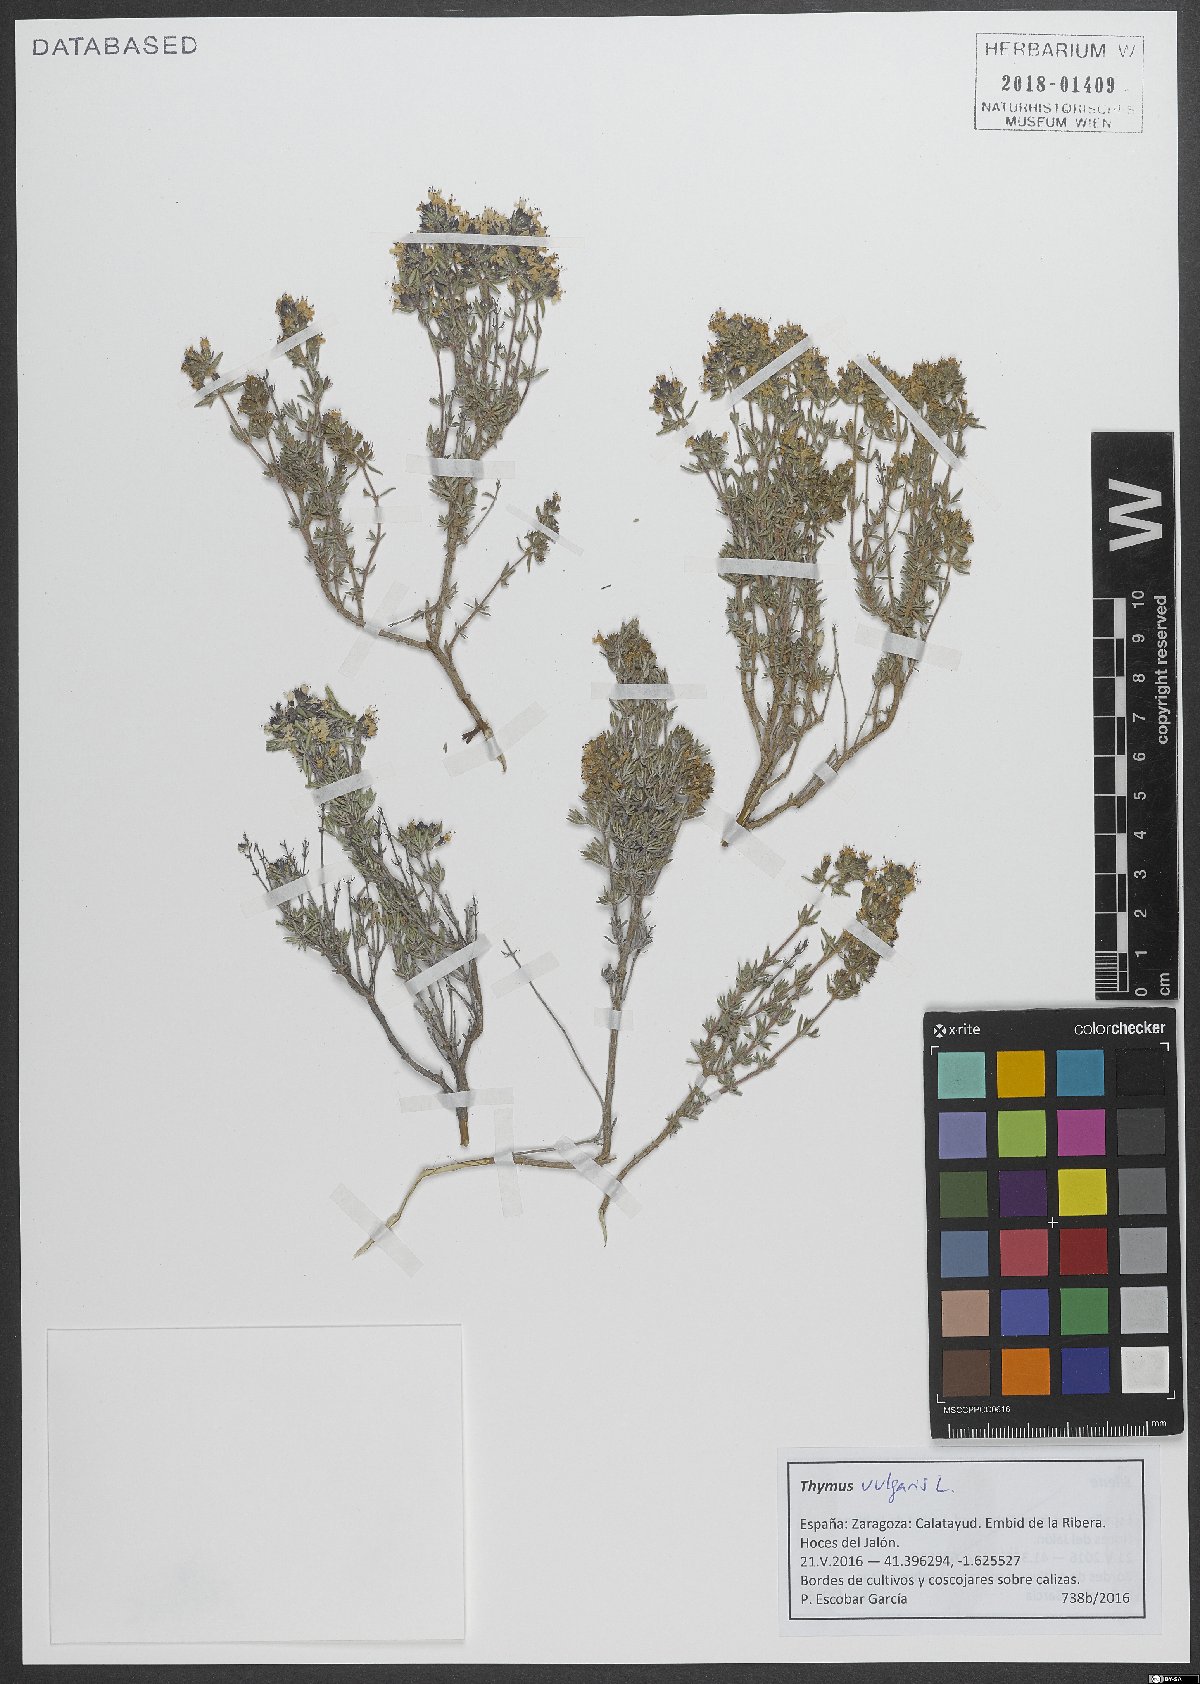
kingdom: Plantae
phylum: Tracheophyta
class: Magnoliopsida
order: Lamiales
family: Lamiaceae
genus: Thymus
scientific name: Thymus vulgaris
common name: Garden thyme
